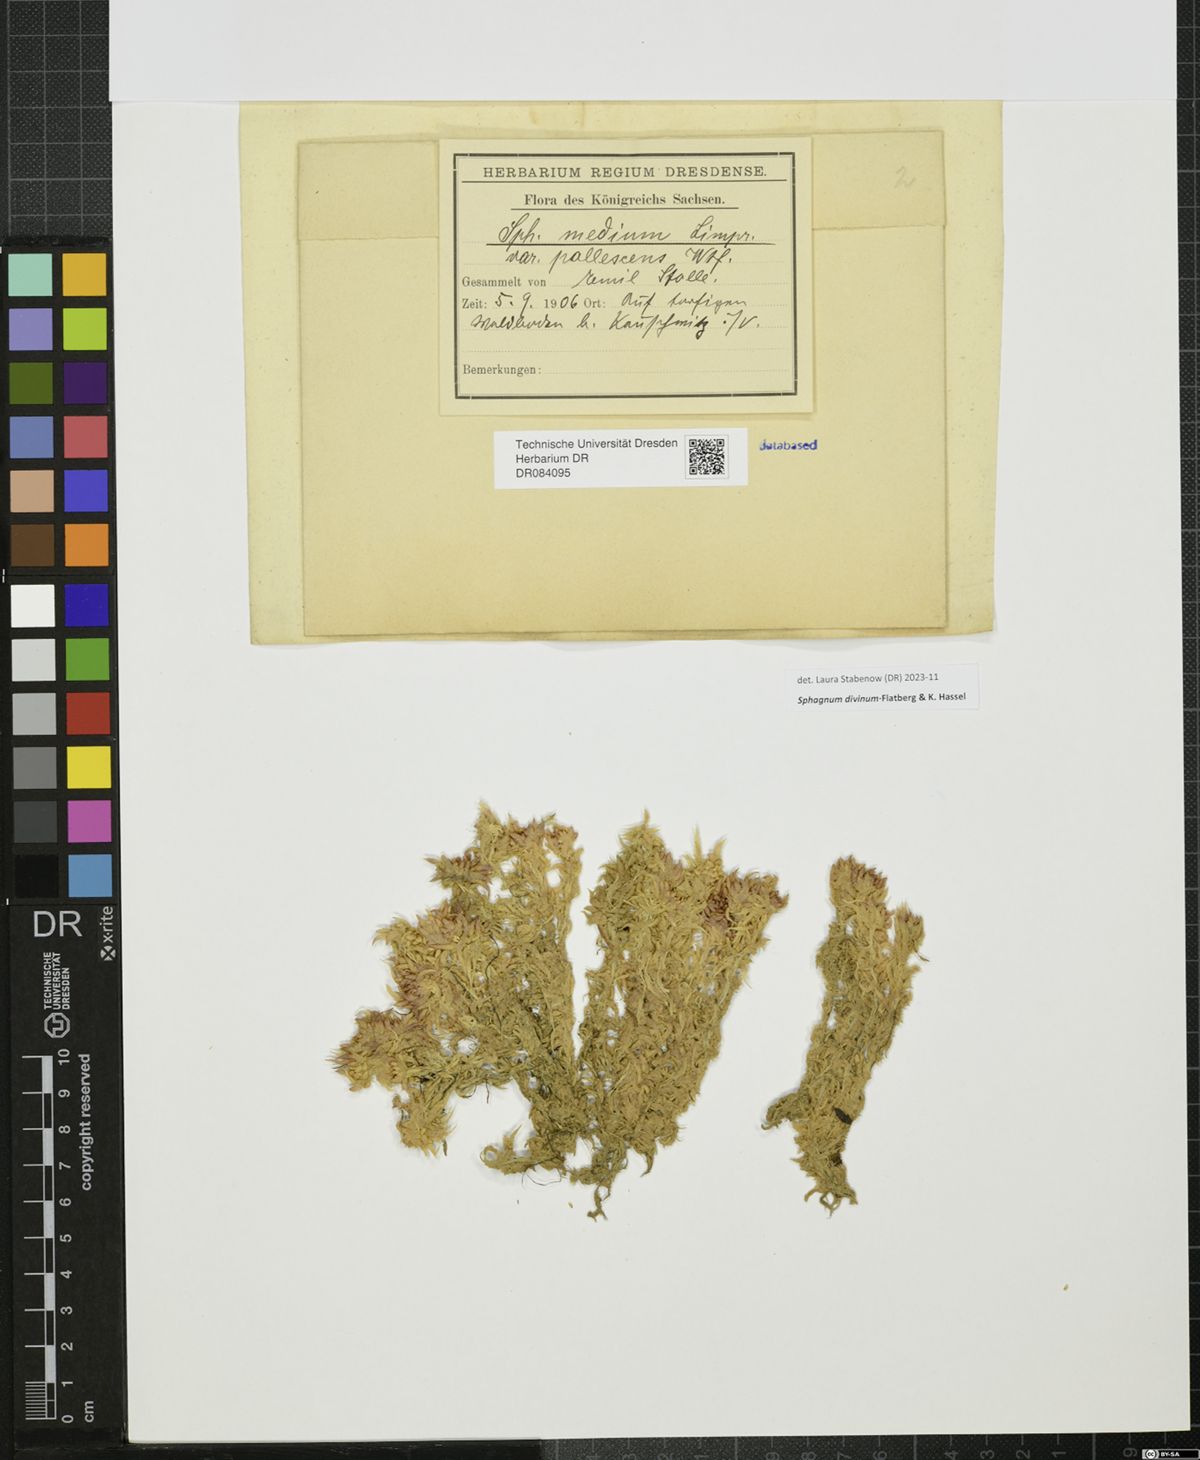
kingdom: Plantae
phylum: Bryophyta
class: Sphagnopsida
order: Sphagnales
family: Sphagnaceae
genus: Sphagnum
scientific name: Sphagnum divinum
